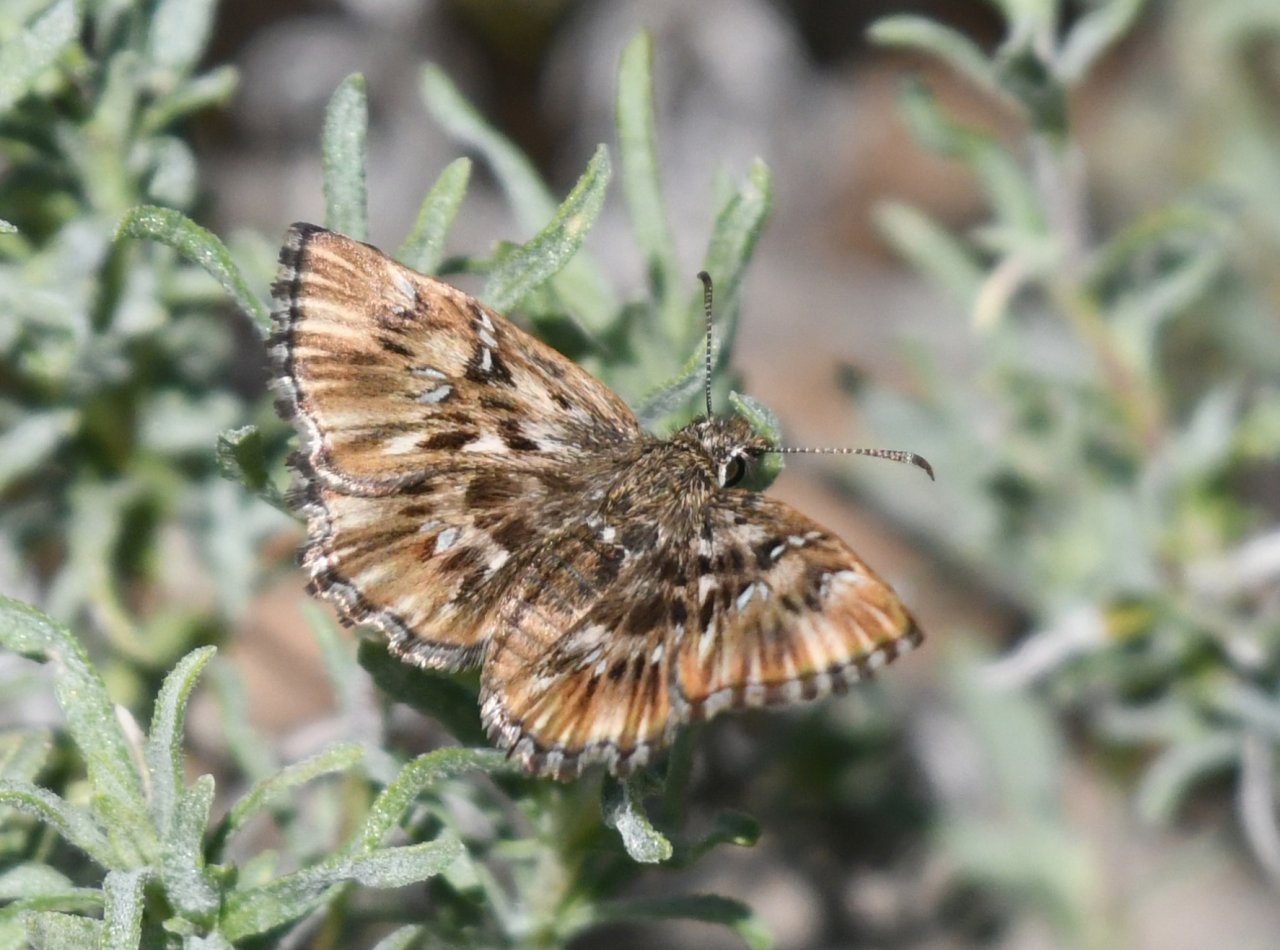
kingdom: Animalia
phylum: Arthropoda
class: Insecta
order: Lepidoptera
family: Hesperiidae
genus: Celotes
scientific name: Celotes nessus
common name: Common Streaky-Skipper
